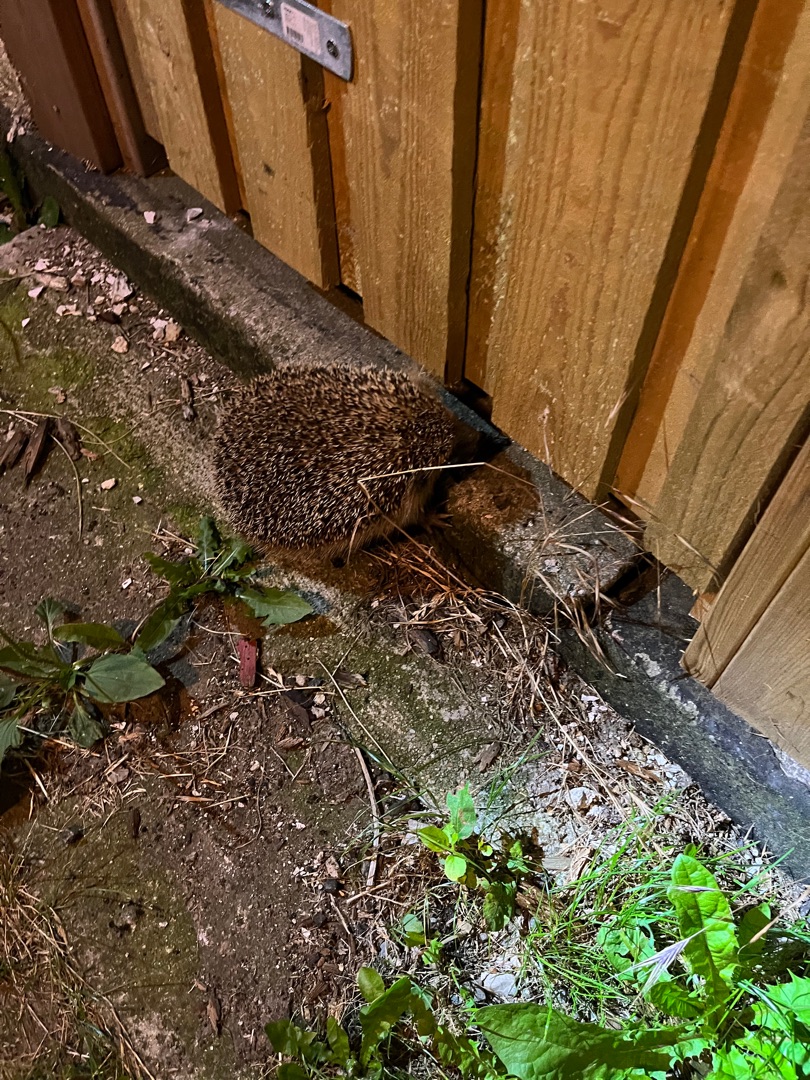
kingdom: Animalia
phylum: Chordata
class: Mammalia
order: Erinaceomorpha
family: Erinaceidae
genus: Erinaceus
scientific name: Erinaceus europaeus
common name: Pindsvin
